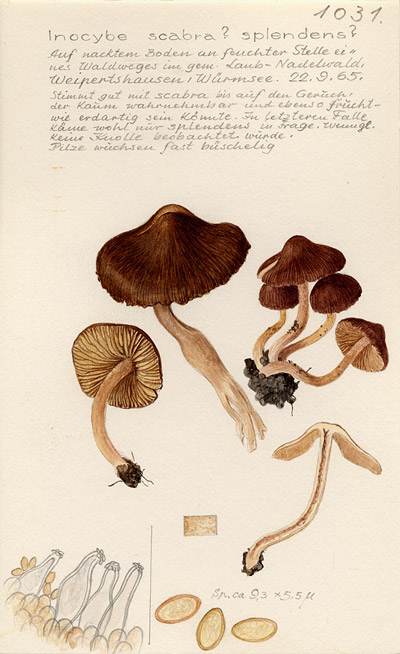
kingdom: Fungi
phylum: Basidiomycota
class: Agaricomycetes
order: Agaricales
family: Inocybaceae
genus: Inocybe
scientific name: Inocybe erinaceomorpha
